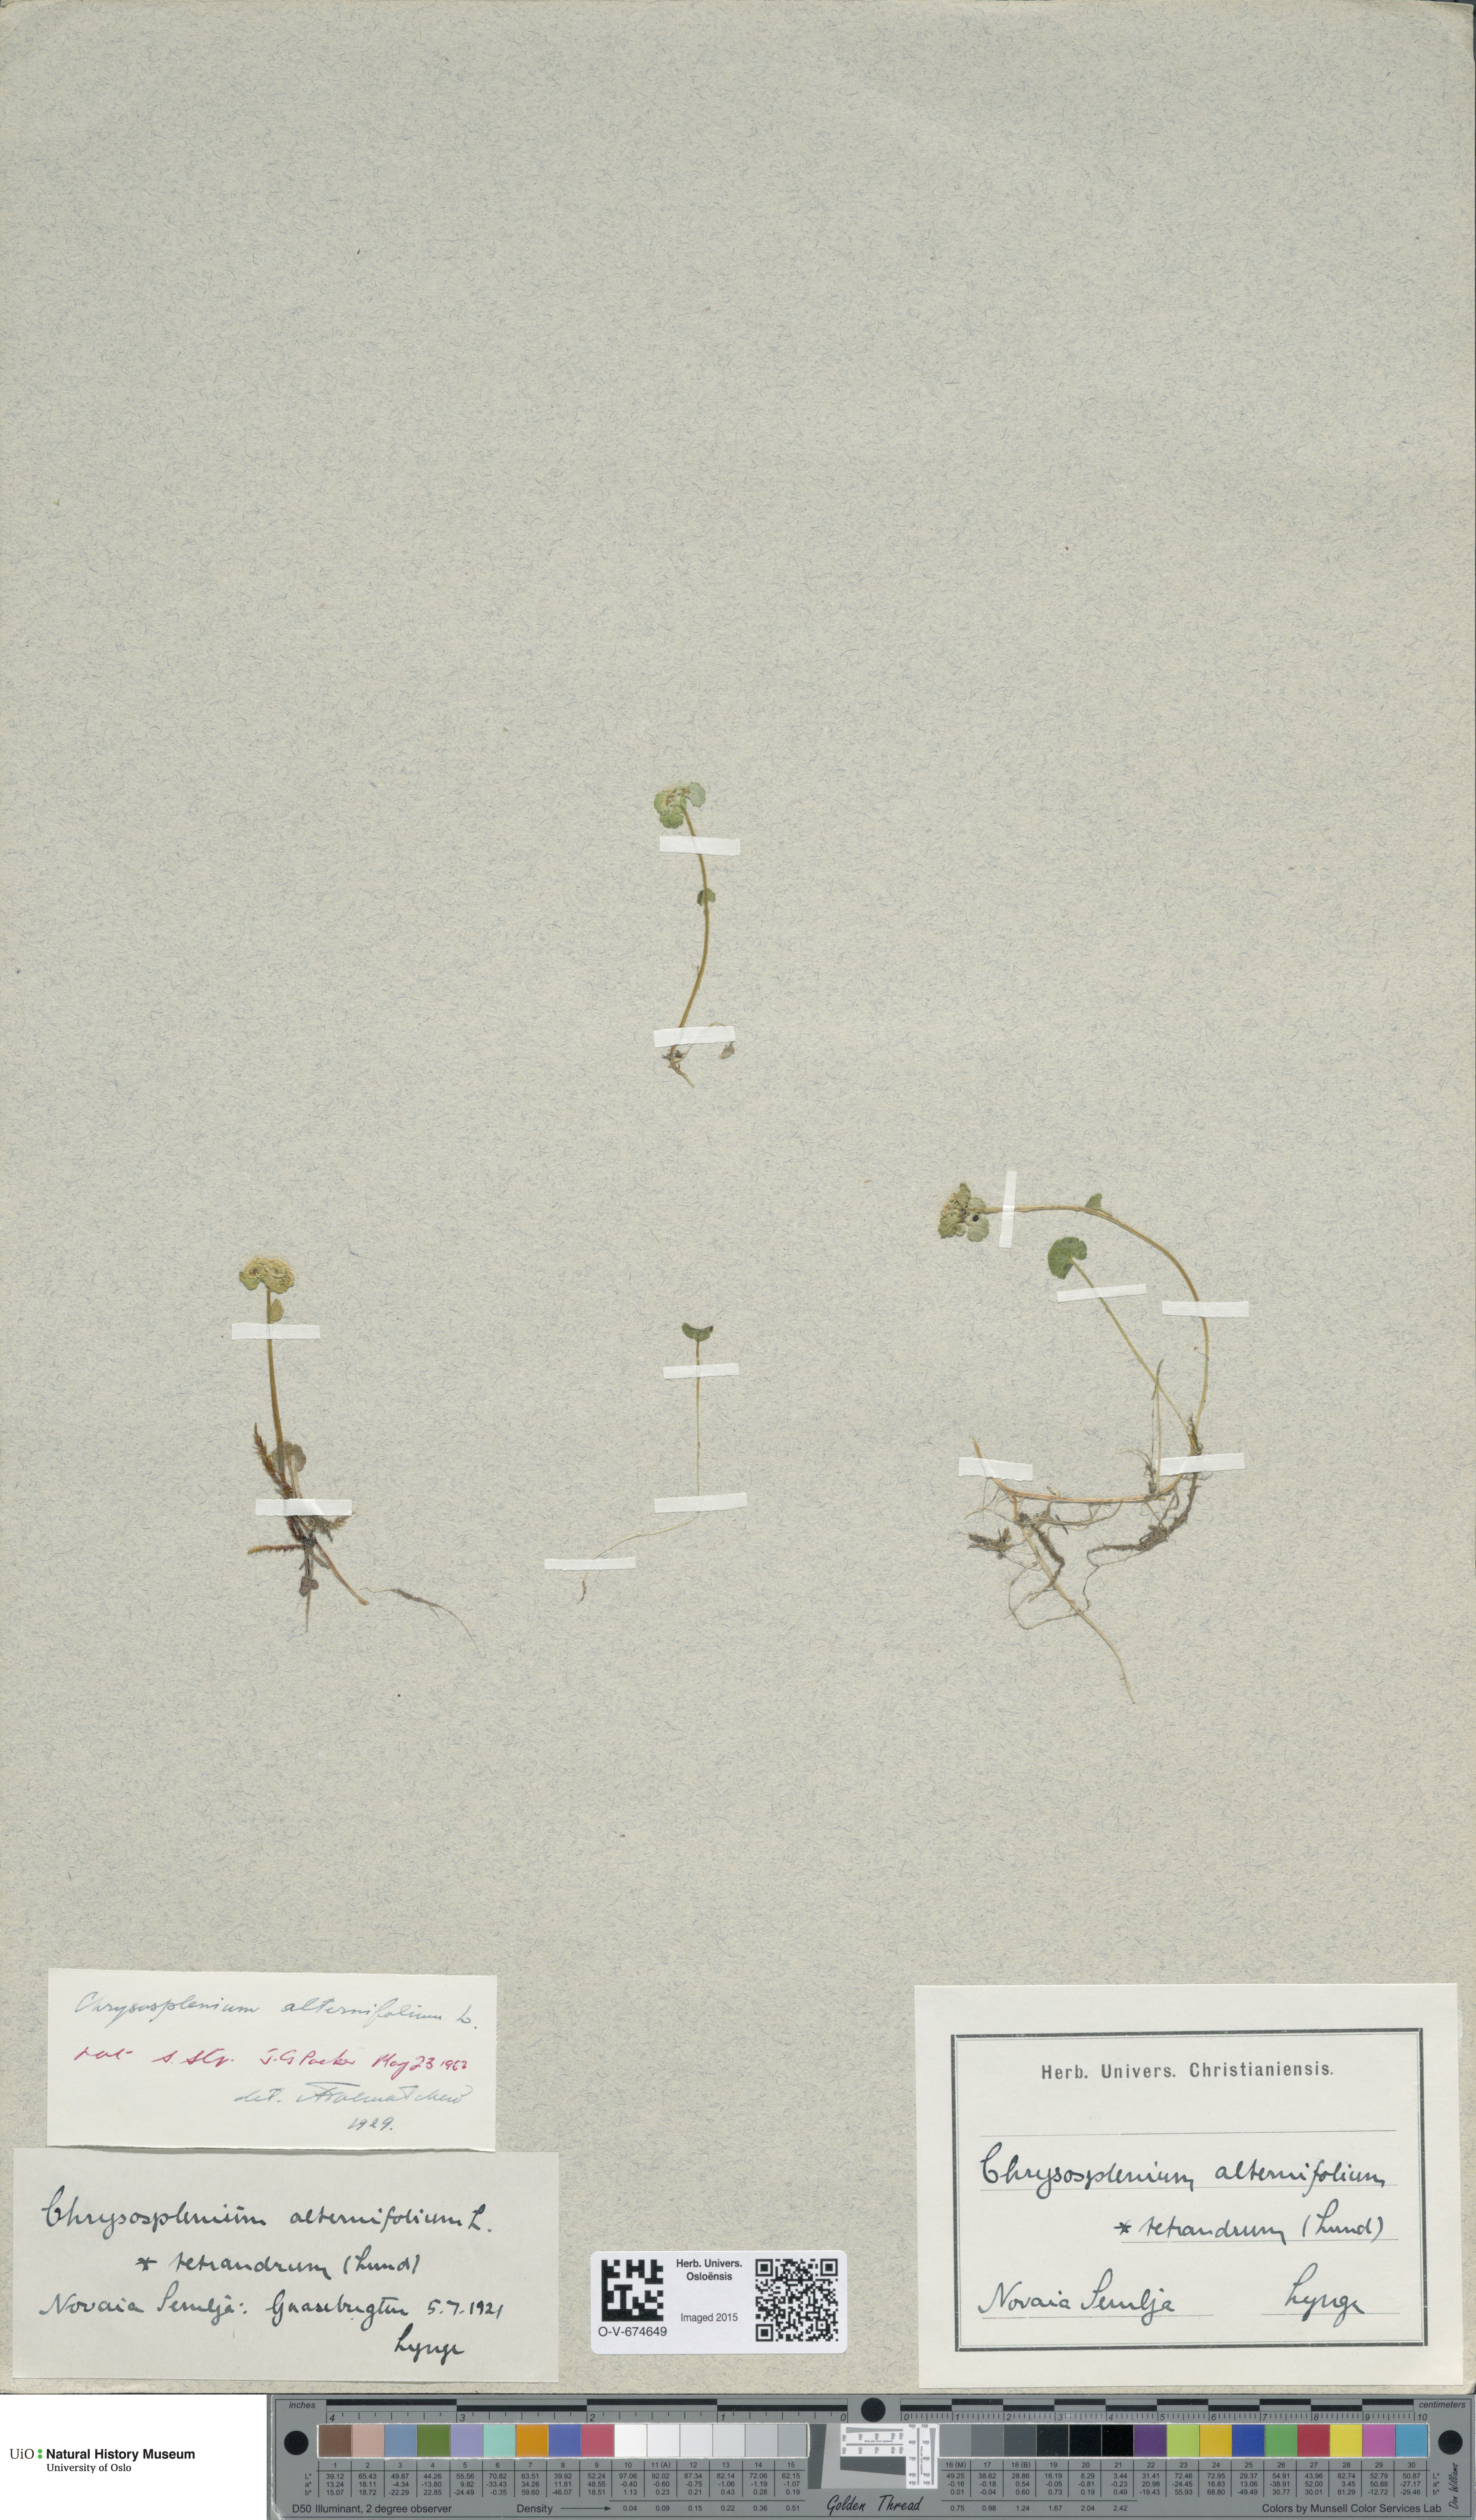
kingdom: Plantae
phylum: Tracheophyta
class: Magnoliopsida
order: Saxifragales
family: Saxifragaceae
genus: Chrysosplenium
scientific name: Chrysosplenium alternifolium
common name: Alternate-leaved golden-saxifrage
